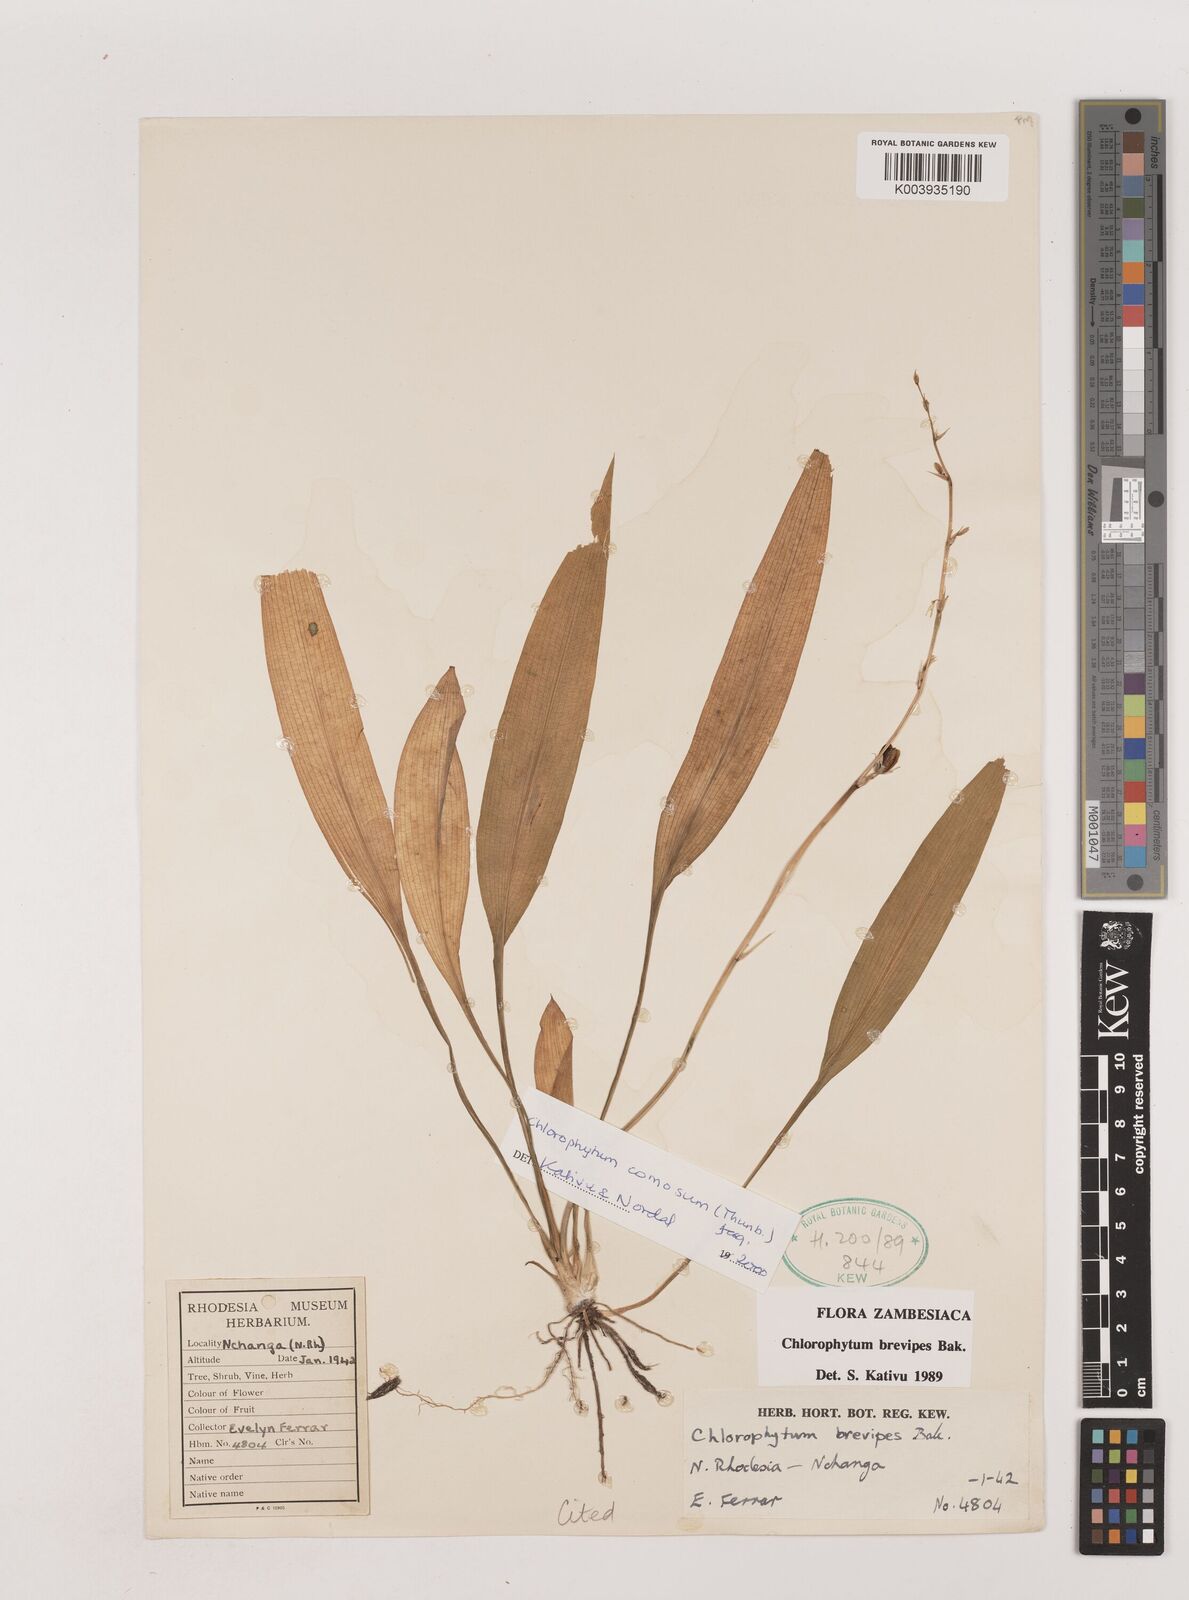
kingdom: Plantae
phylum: Tracheophyta
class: Liliopsida
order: Asparagales
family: Asparagaceae
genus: Chlorophytum
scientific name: Chlorophytum comosum
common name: Spider plant
